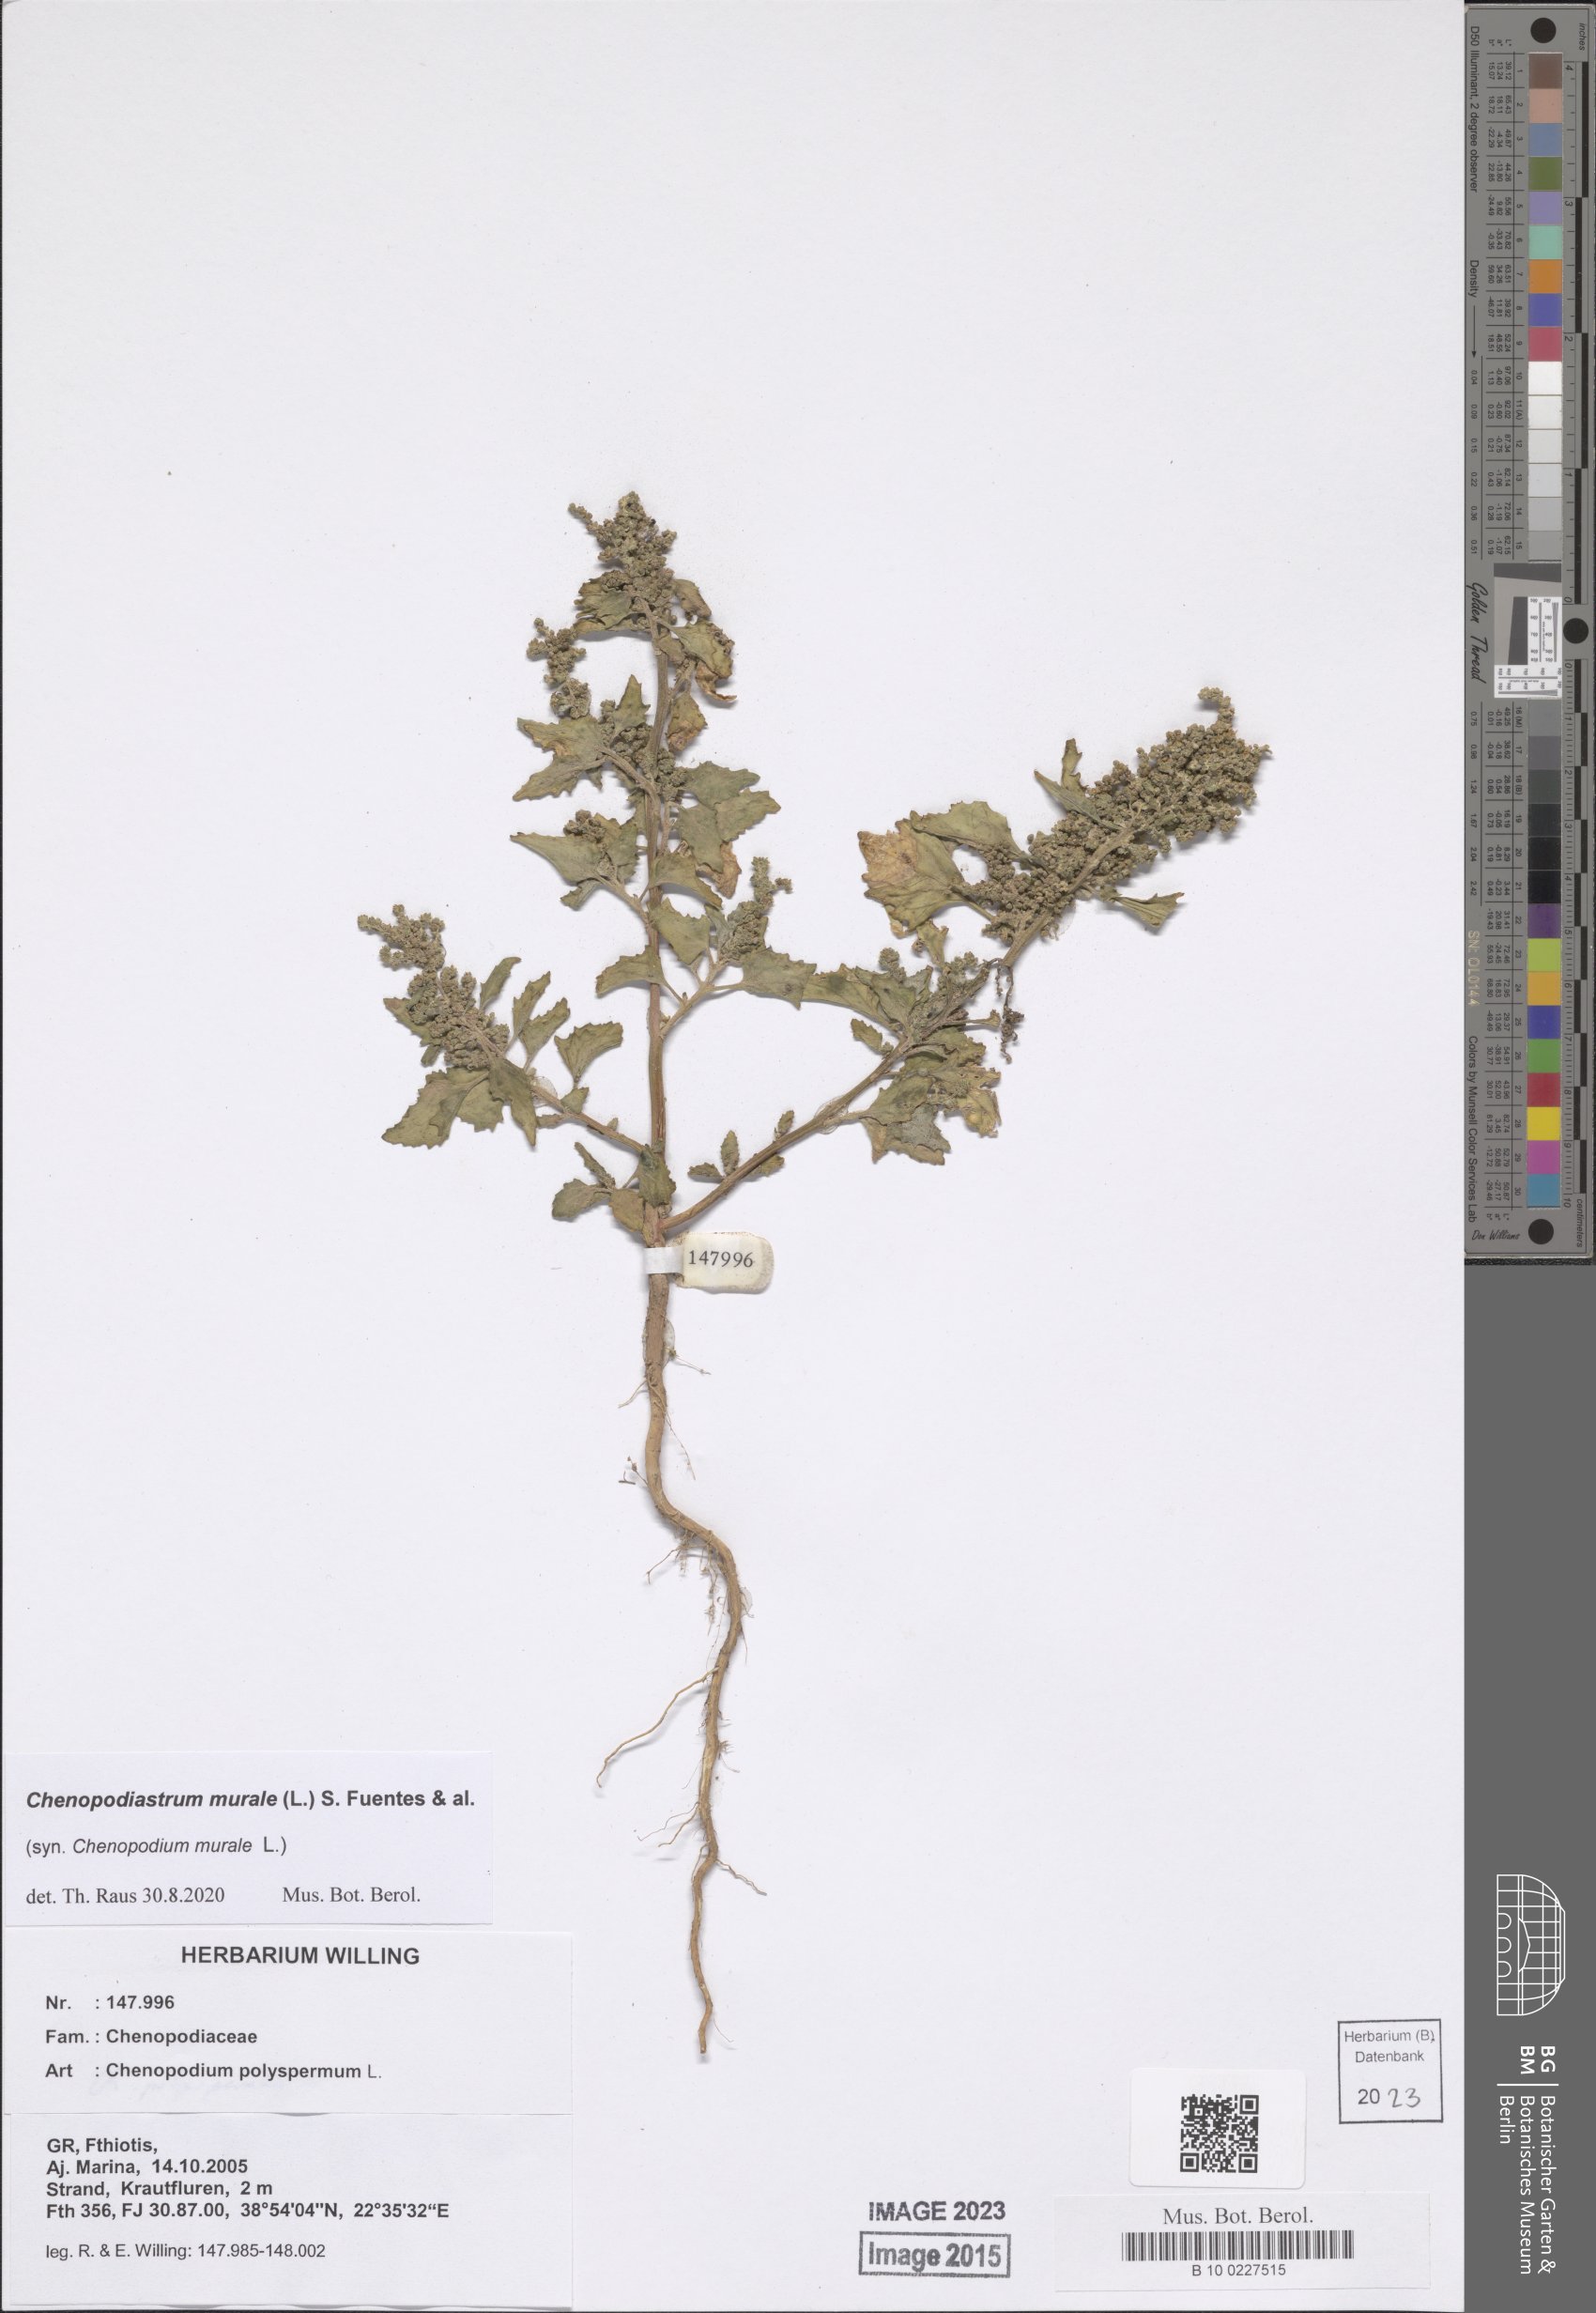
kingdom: Plantae
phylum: Tracheophyta
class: Magnoliopsida
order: Caryophyllales
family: Amaranthaceae
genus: Chenopodiastrum
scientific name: Chenopodiastrum murale
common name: Sowbane
